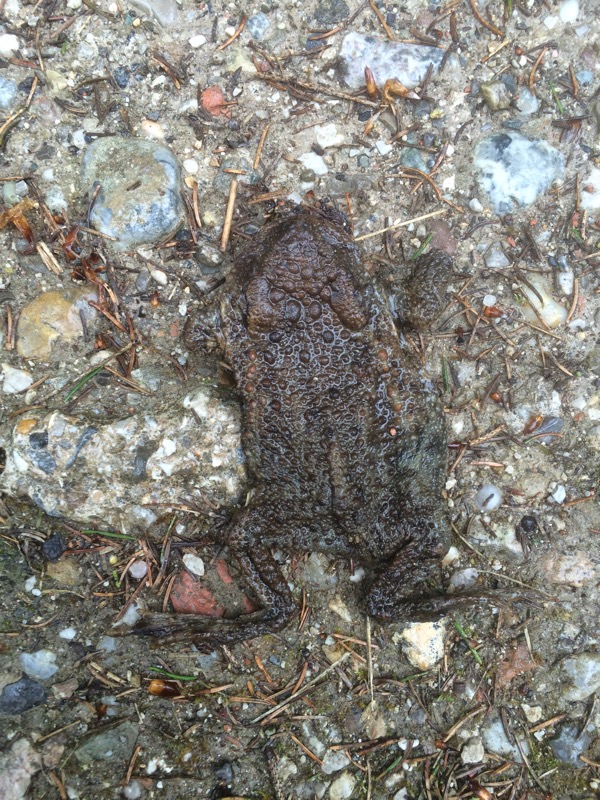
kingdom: Animalia
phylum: Chordata
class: Amphibia
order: Anura
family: Bufonidae
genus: Bufo
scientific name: Bufo bufo
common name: Common toad
